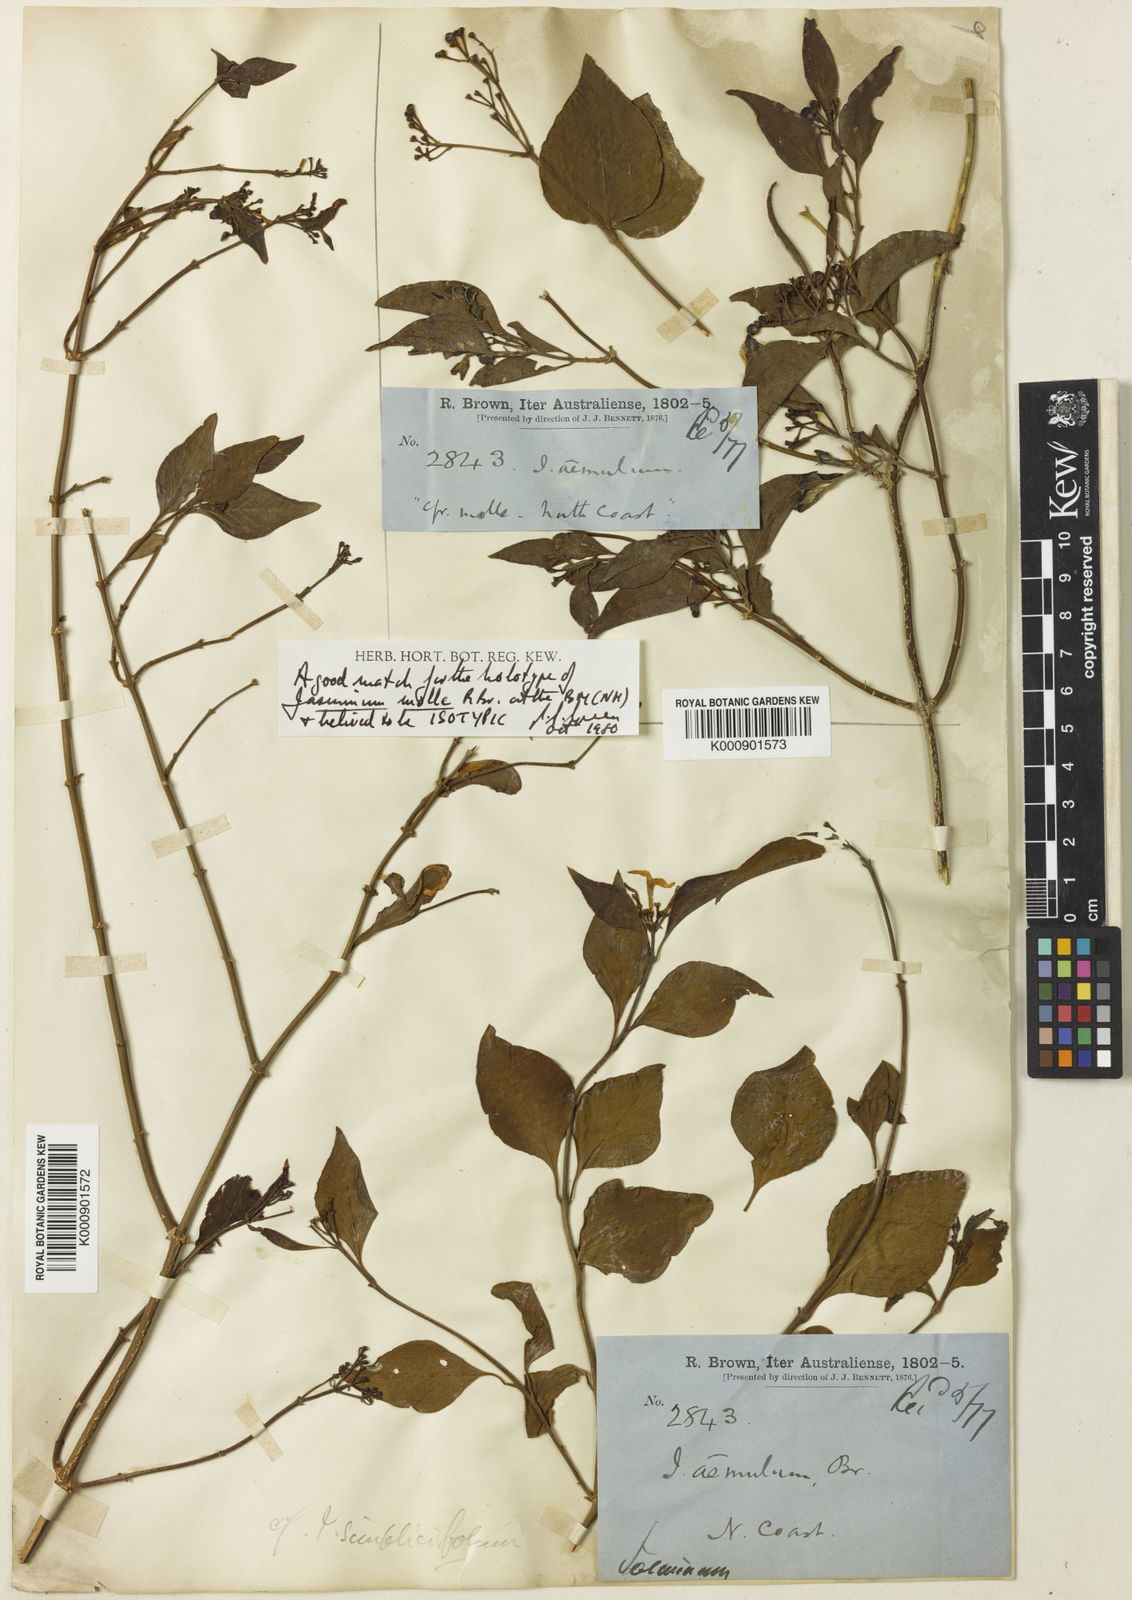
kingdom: Plantae
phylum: Tracheophyta
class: Magnoliopsida
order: Lamiales
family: Oleaceae
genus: Jasminum
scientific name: Jasminum molle
